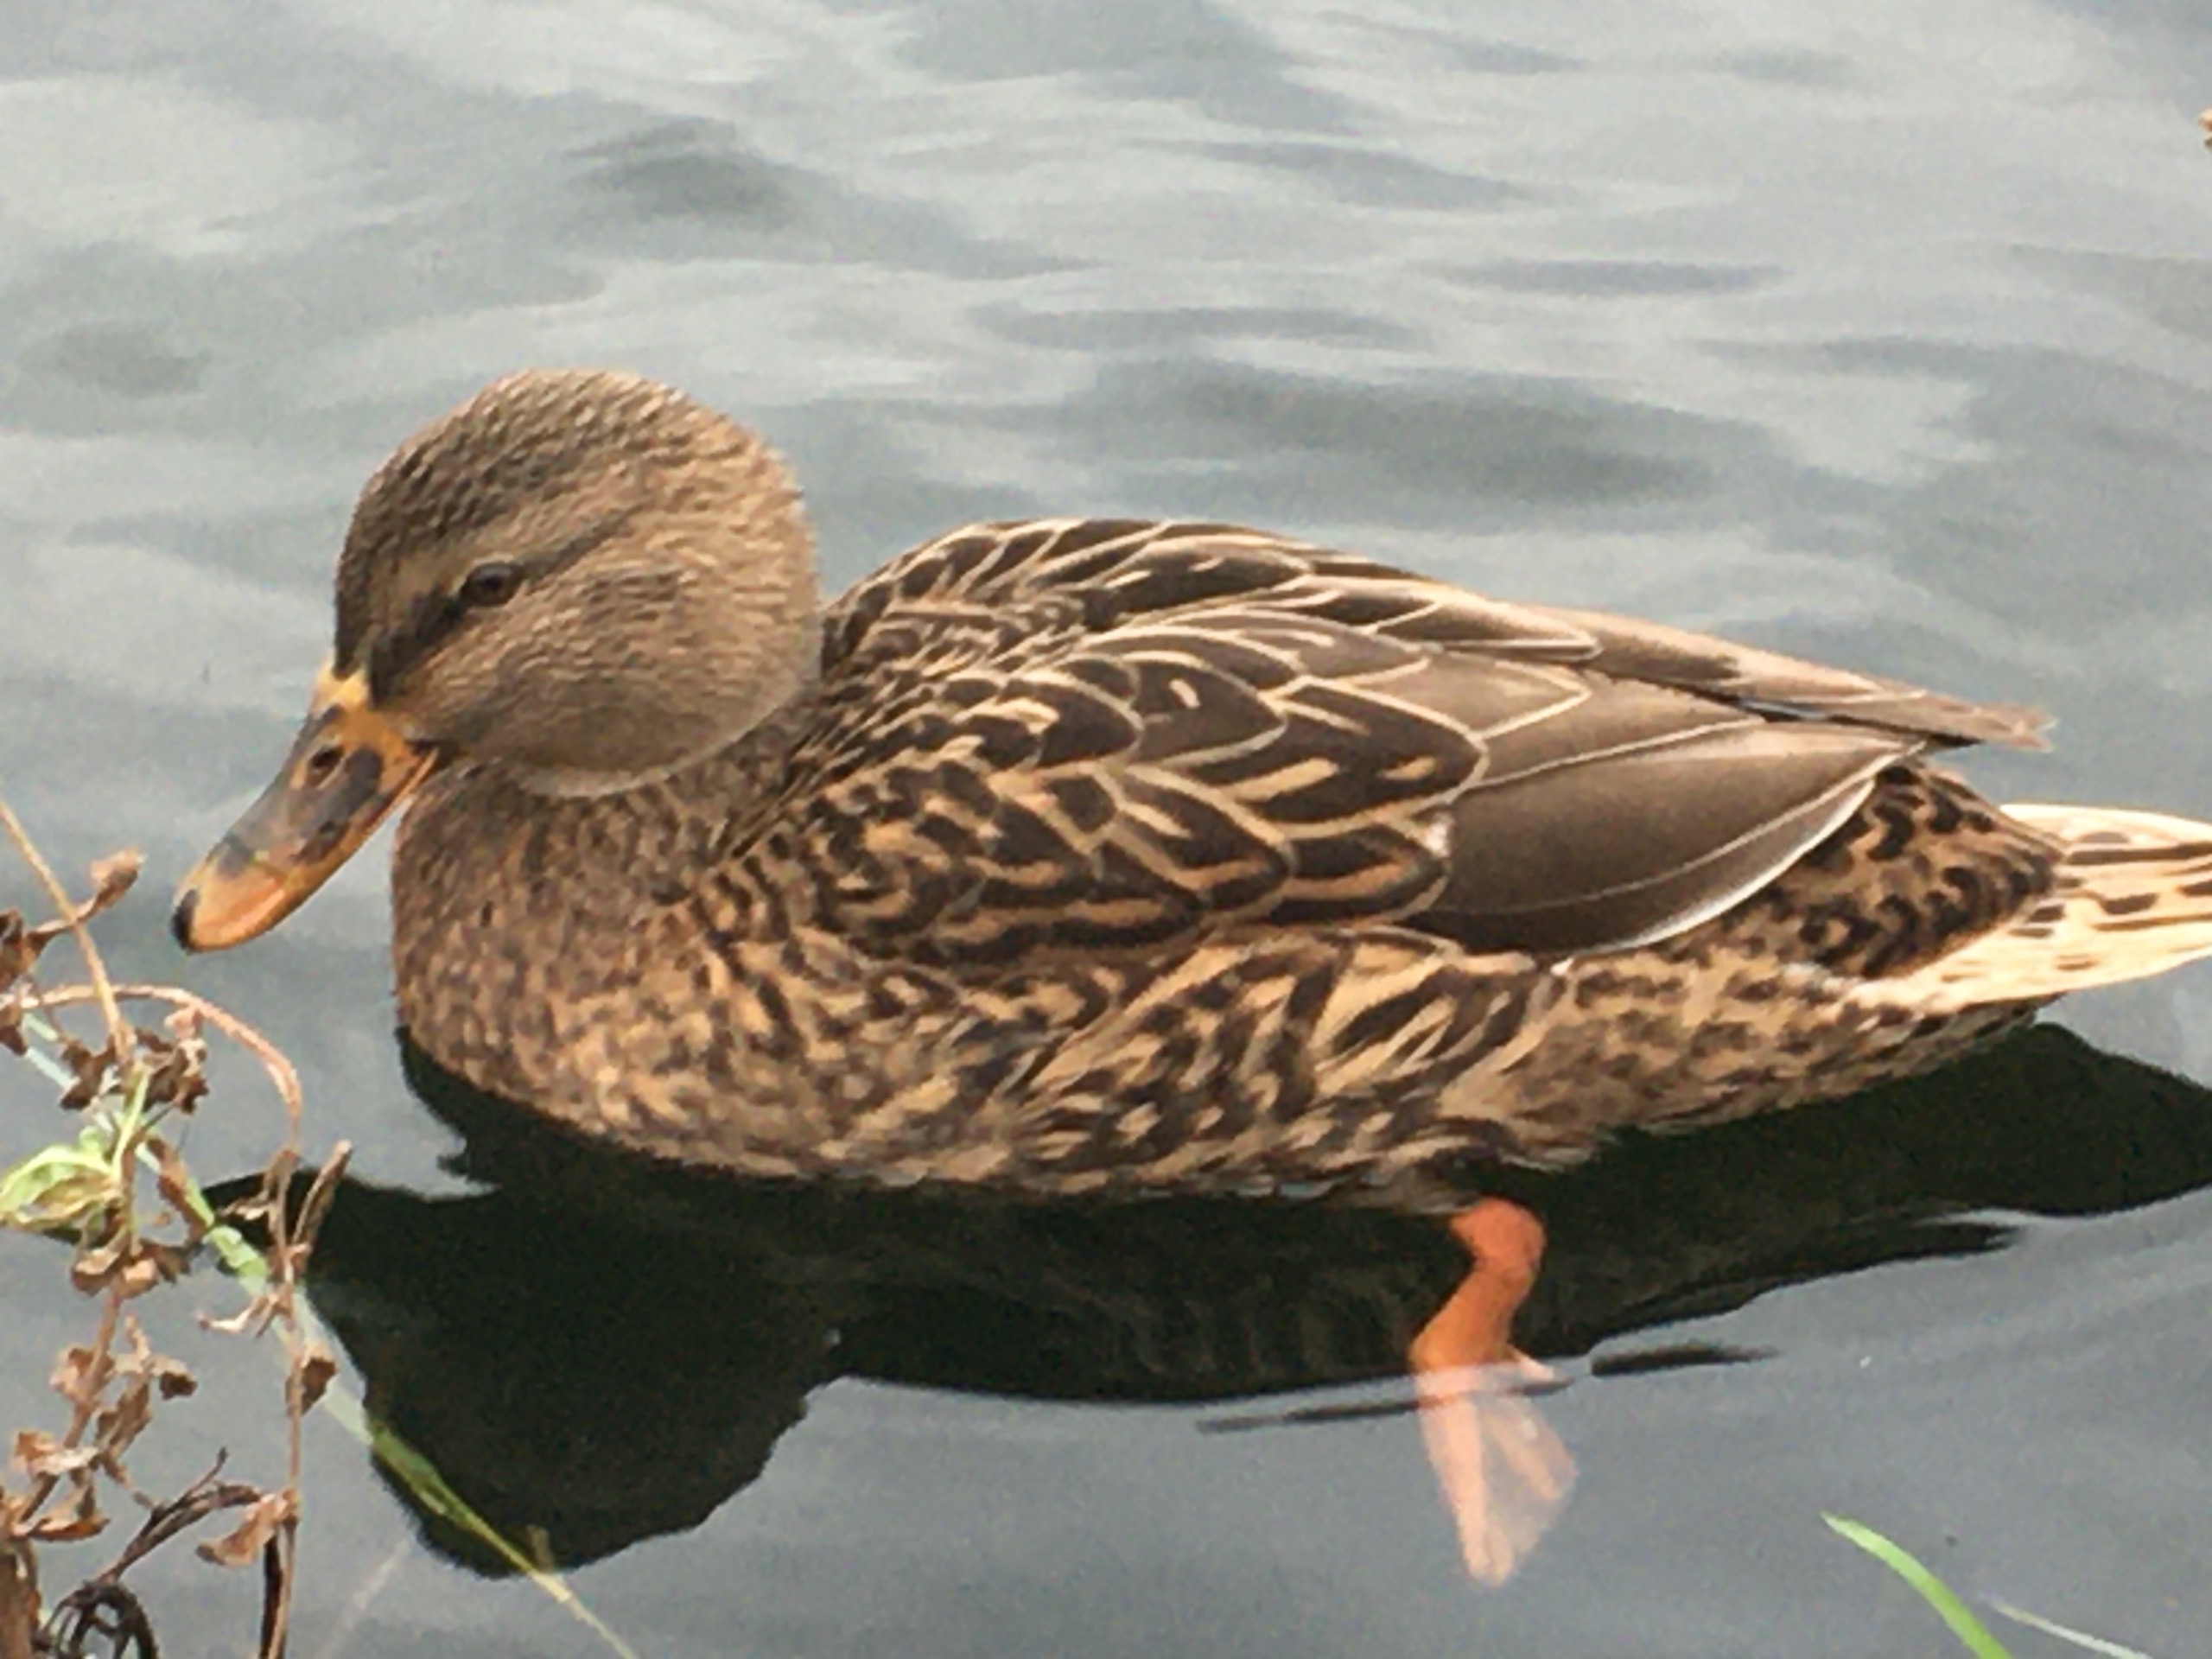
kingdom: Animalia
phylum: Chordata
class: Aves
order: Anseriformes
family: Anatidae
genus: Anas
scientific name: Anas platyrhynchos
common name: Gråand
